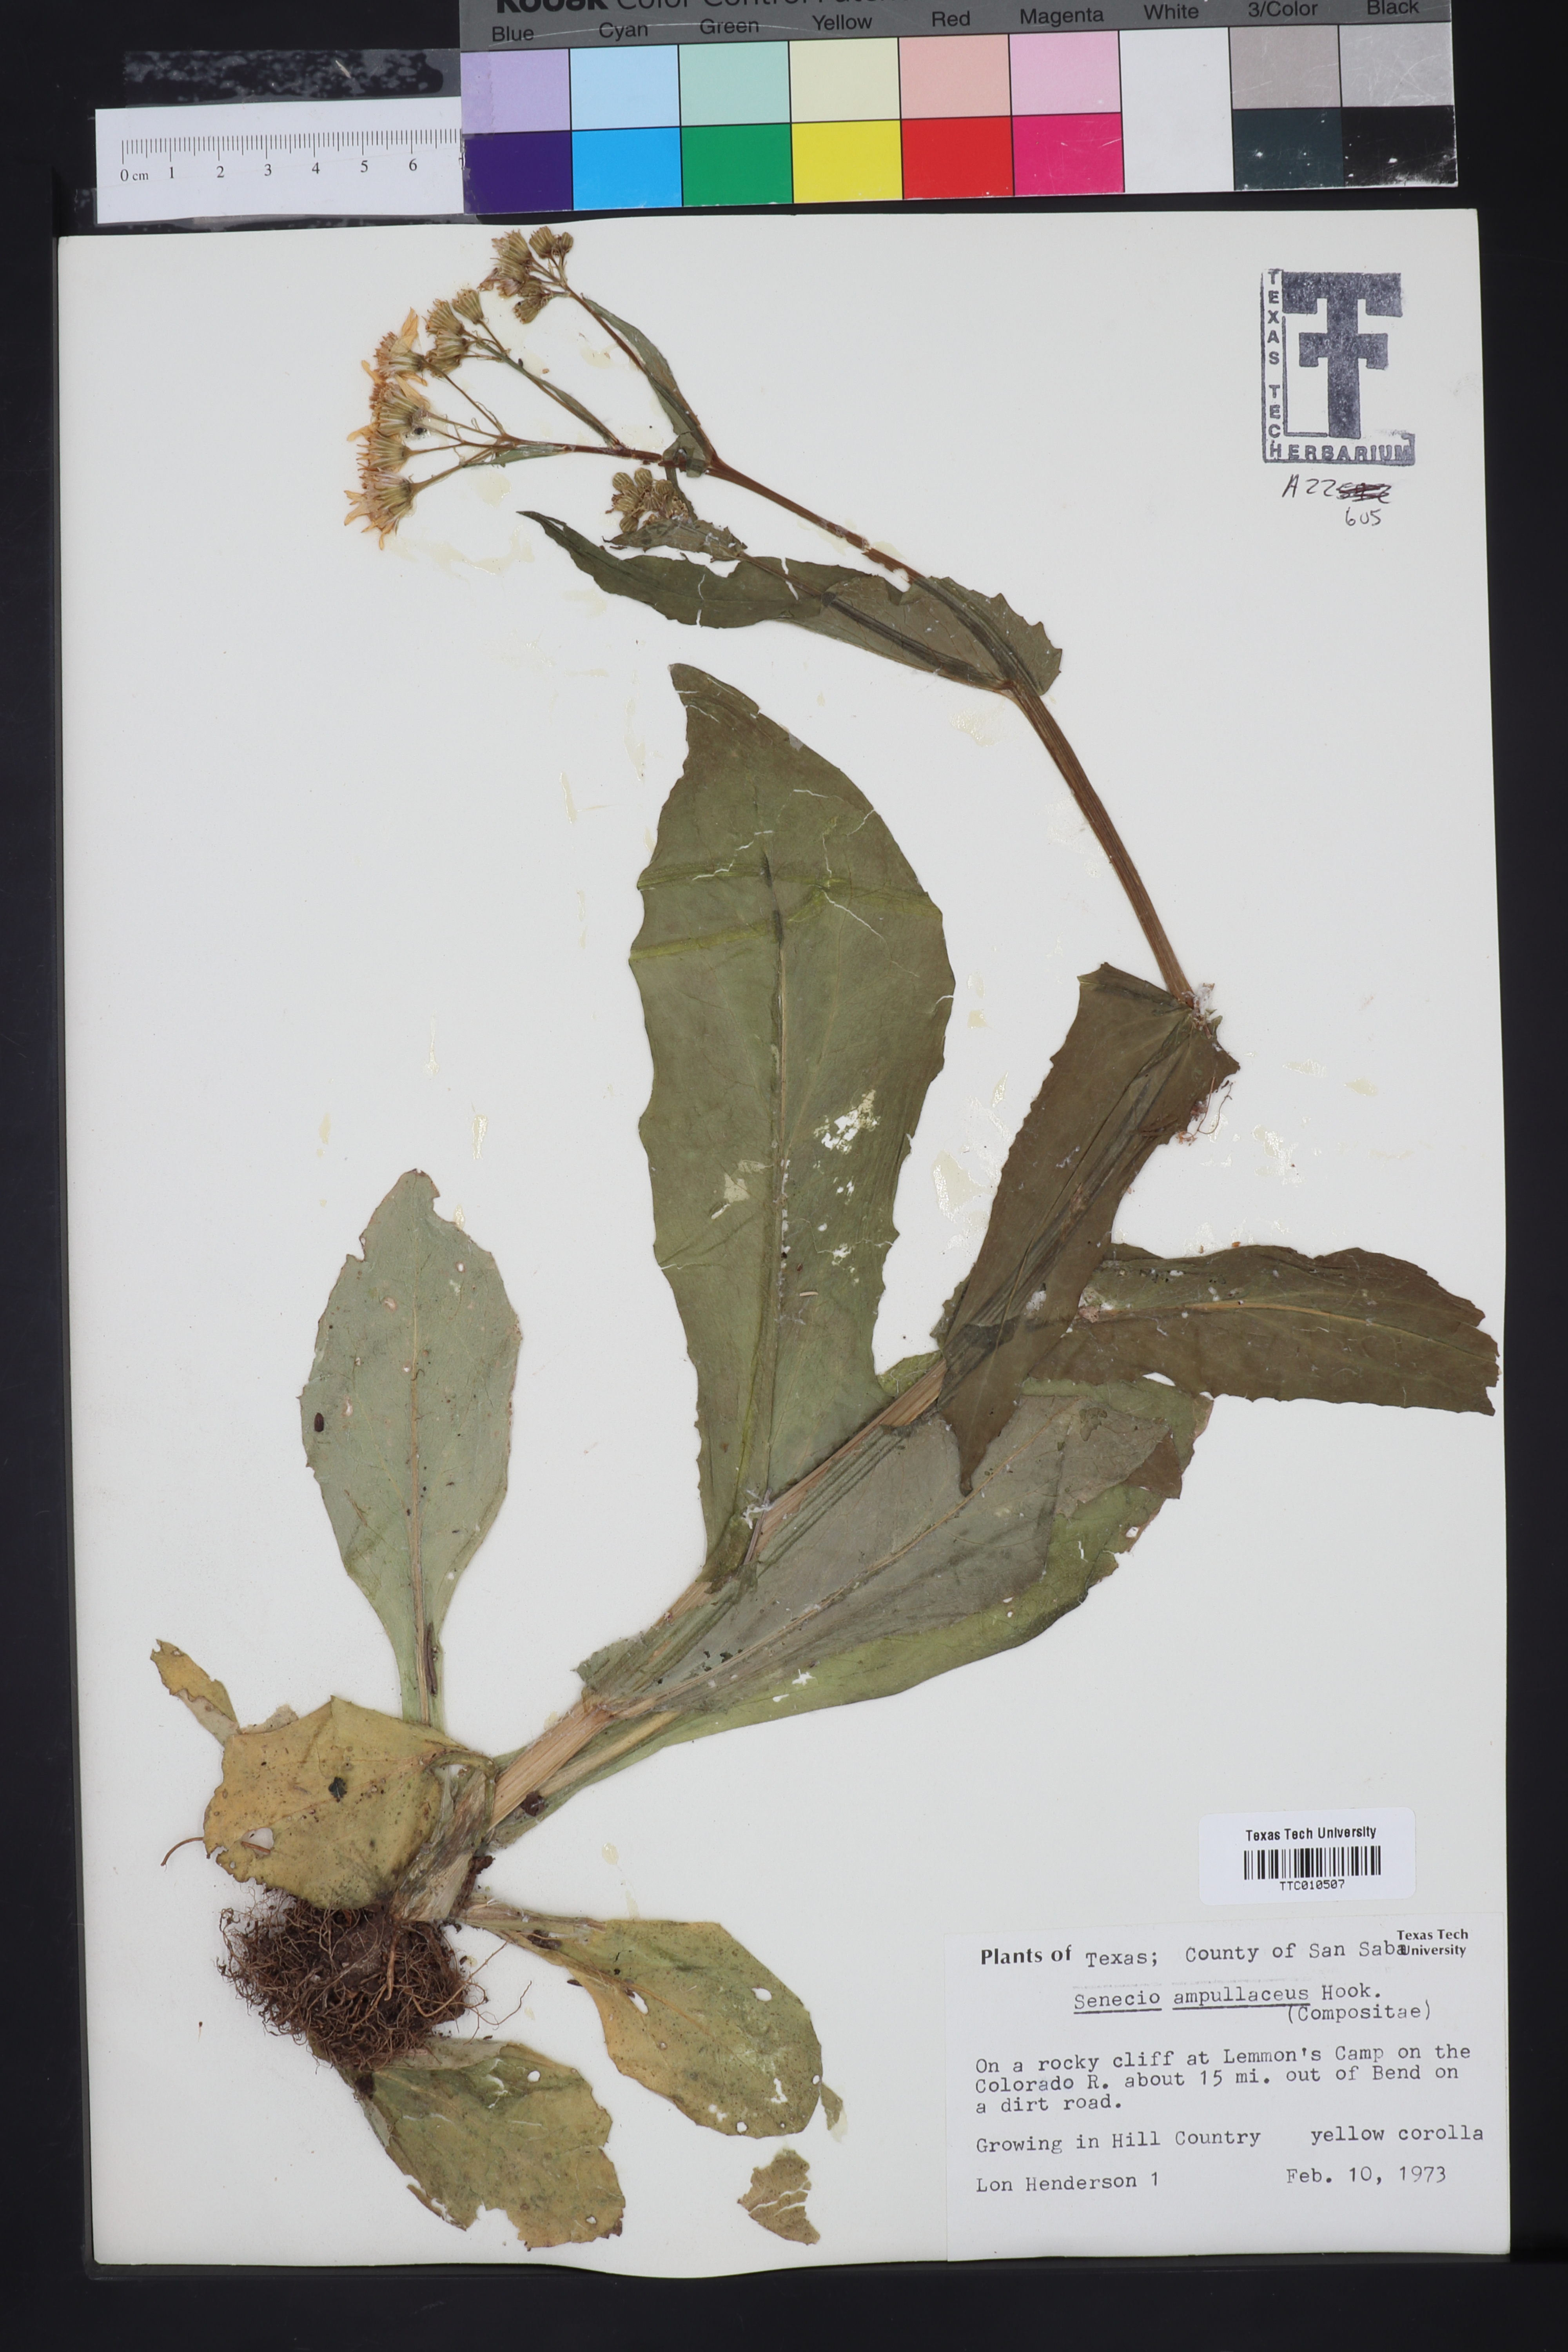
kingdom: Plantae
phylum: Tracheophyta
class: Magnoliopsida
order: Asterales
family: Asteraceae
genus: Senecio
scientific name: Senecio ampullaceus
